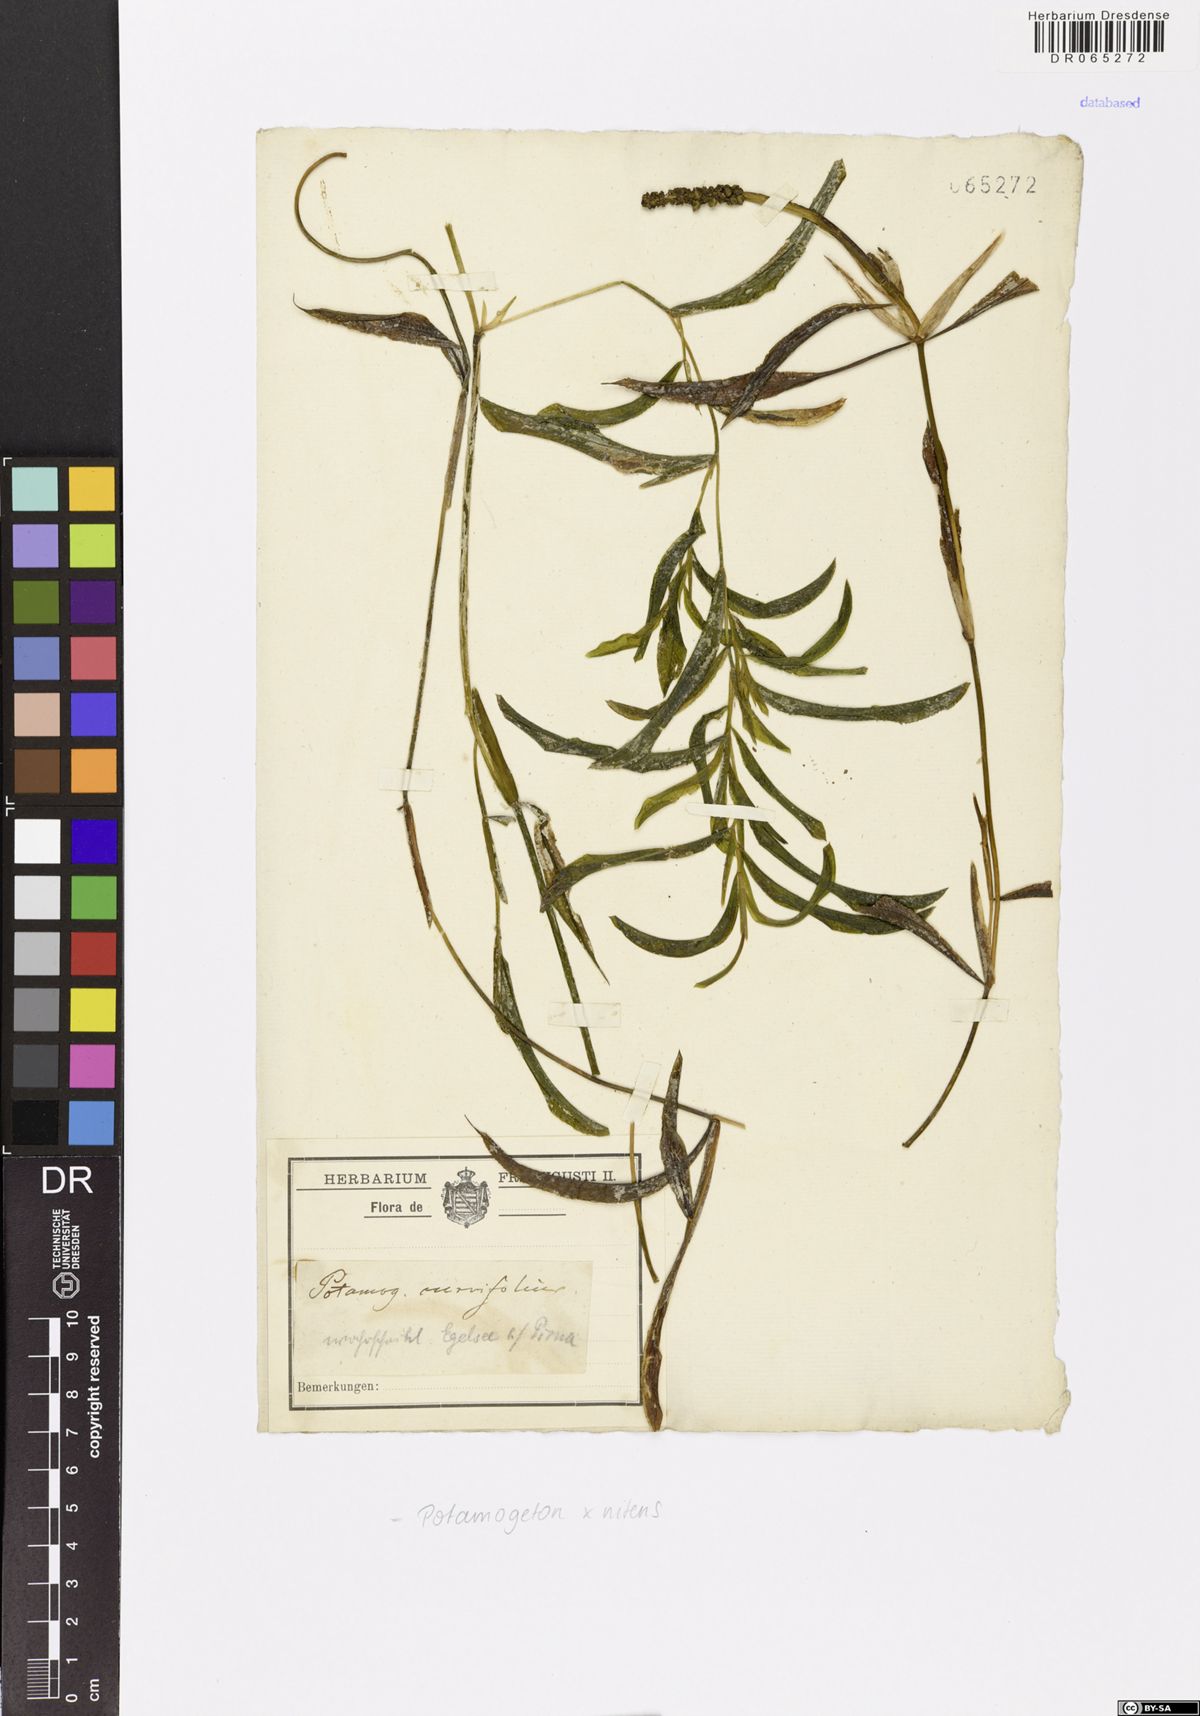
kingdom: Plantae
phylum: Tracheophyta
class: Liliopsida
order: Alismatales
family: Potamogetonaceae
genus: Potamogeton
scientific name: Potamogeton nitens
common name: Pondweed
